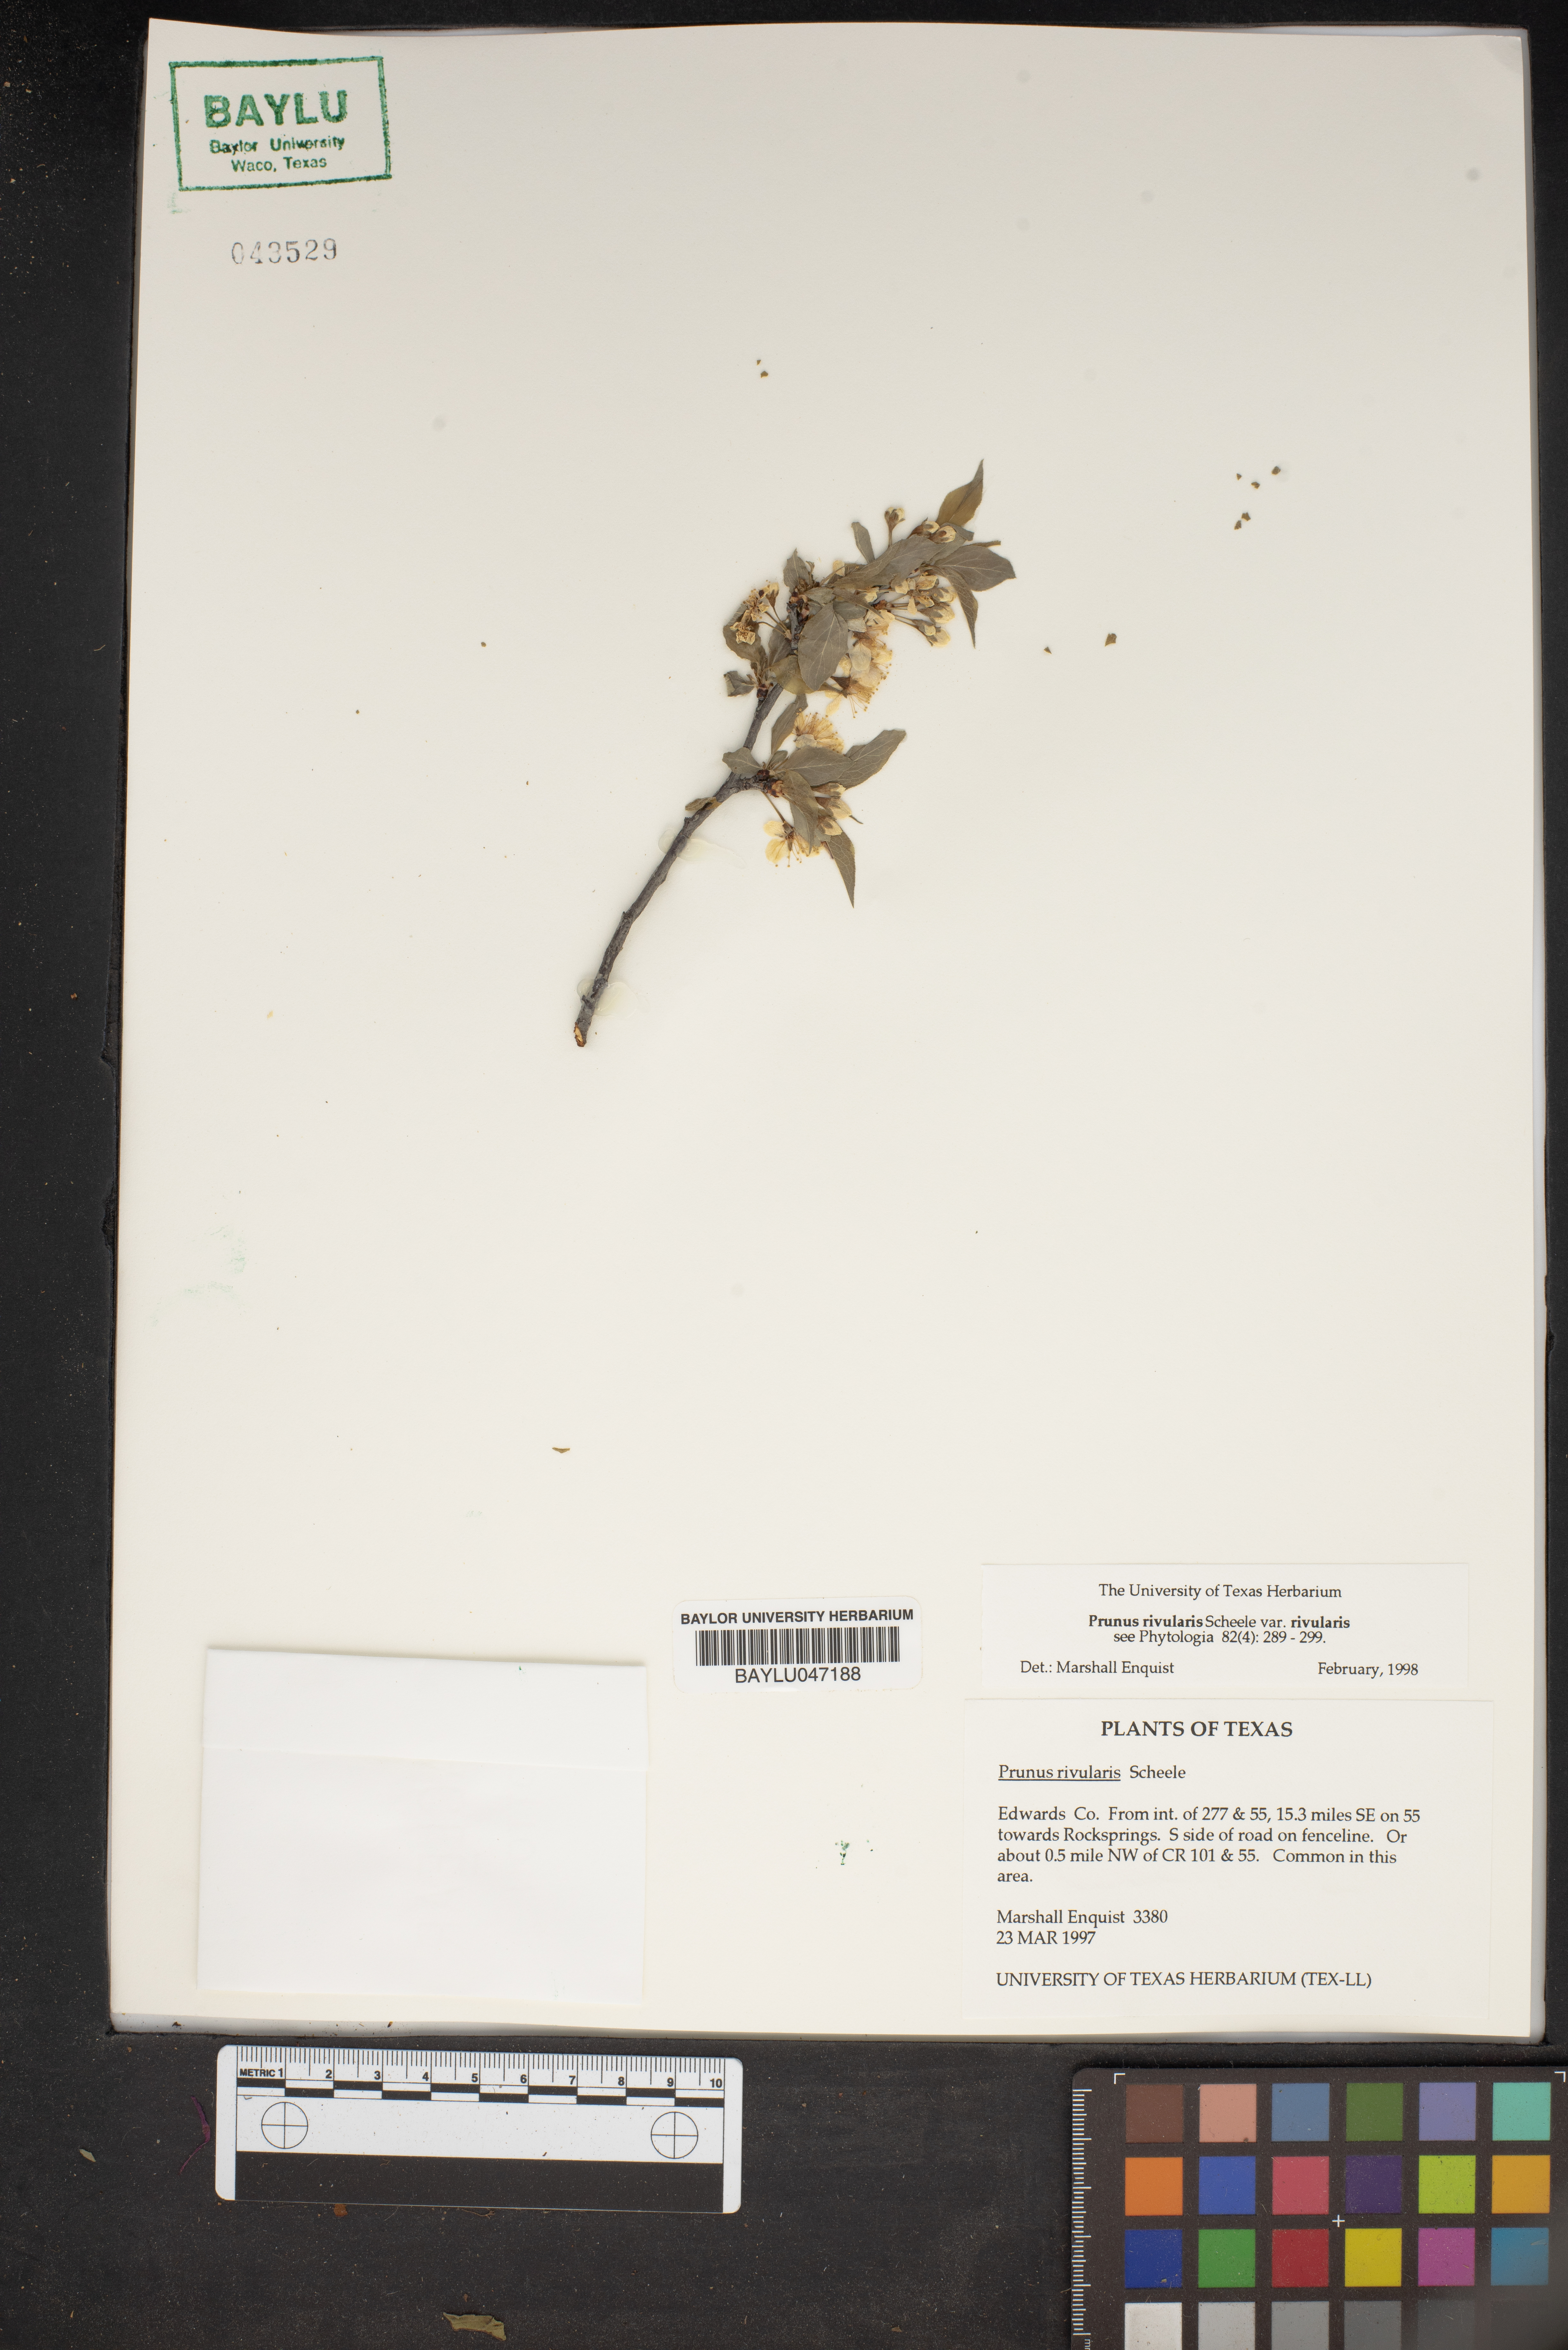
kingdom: Plantae
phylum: Tracheophyta
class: Magnoliopsida
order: Rosales
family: Rosaceae
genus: Prunus
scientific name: Prunus rivularis
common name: Creek plum
